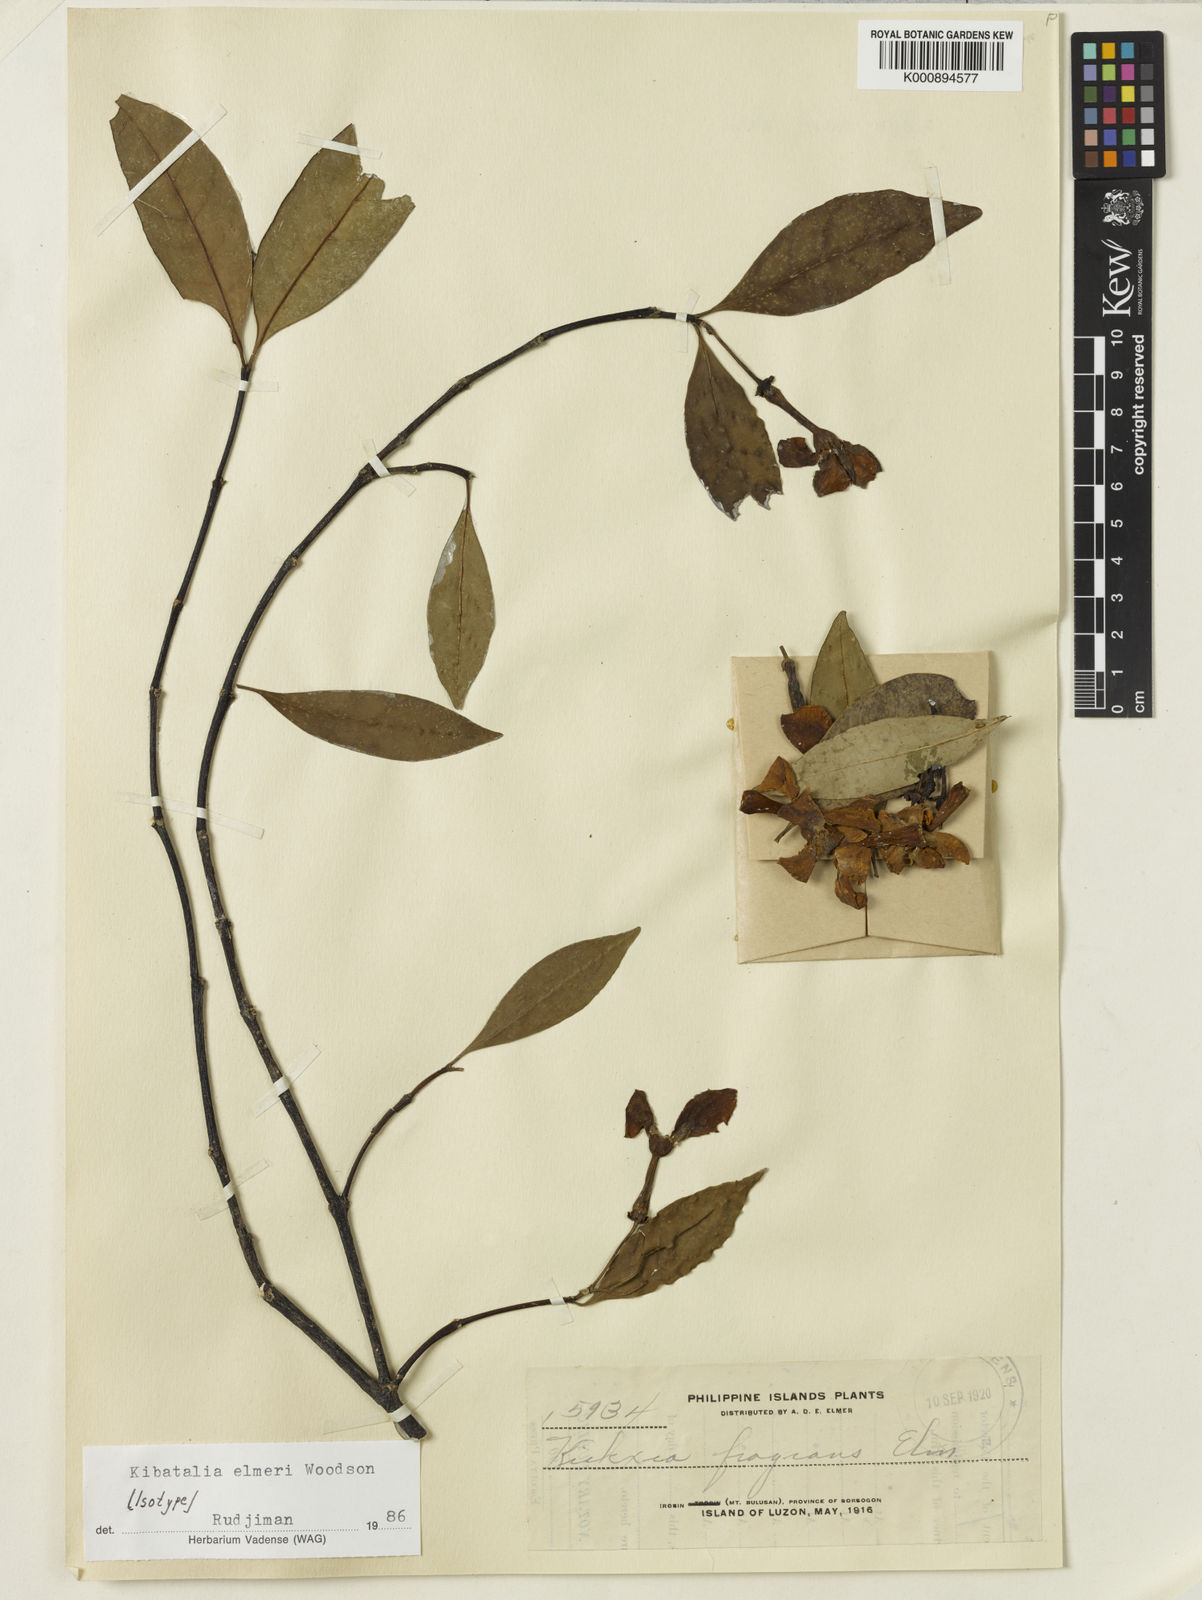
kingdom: Plantae
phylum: Tracheophyta
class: Magnoliopsida
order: Gentianales
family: Apocynaceae
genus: Kibatalia
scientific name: Kibatalia elmeri
